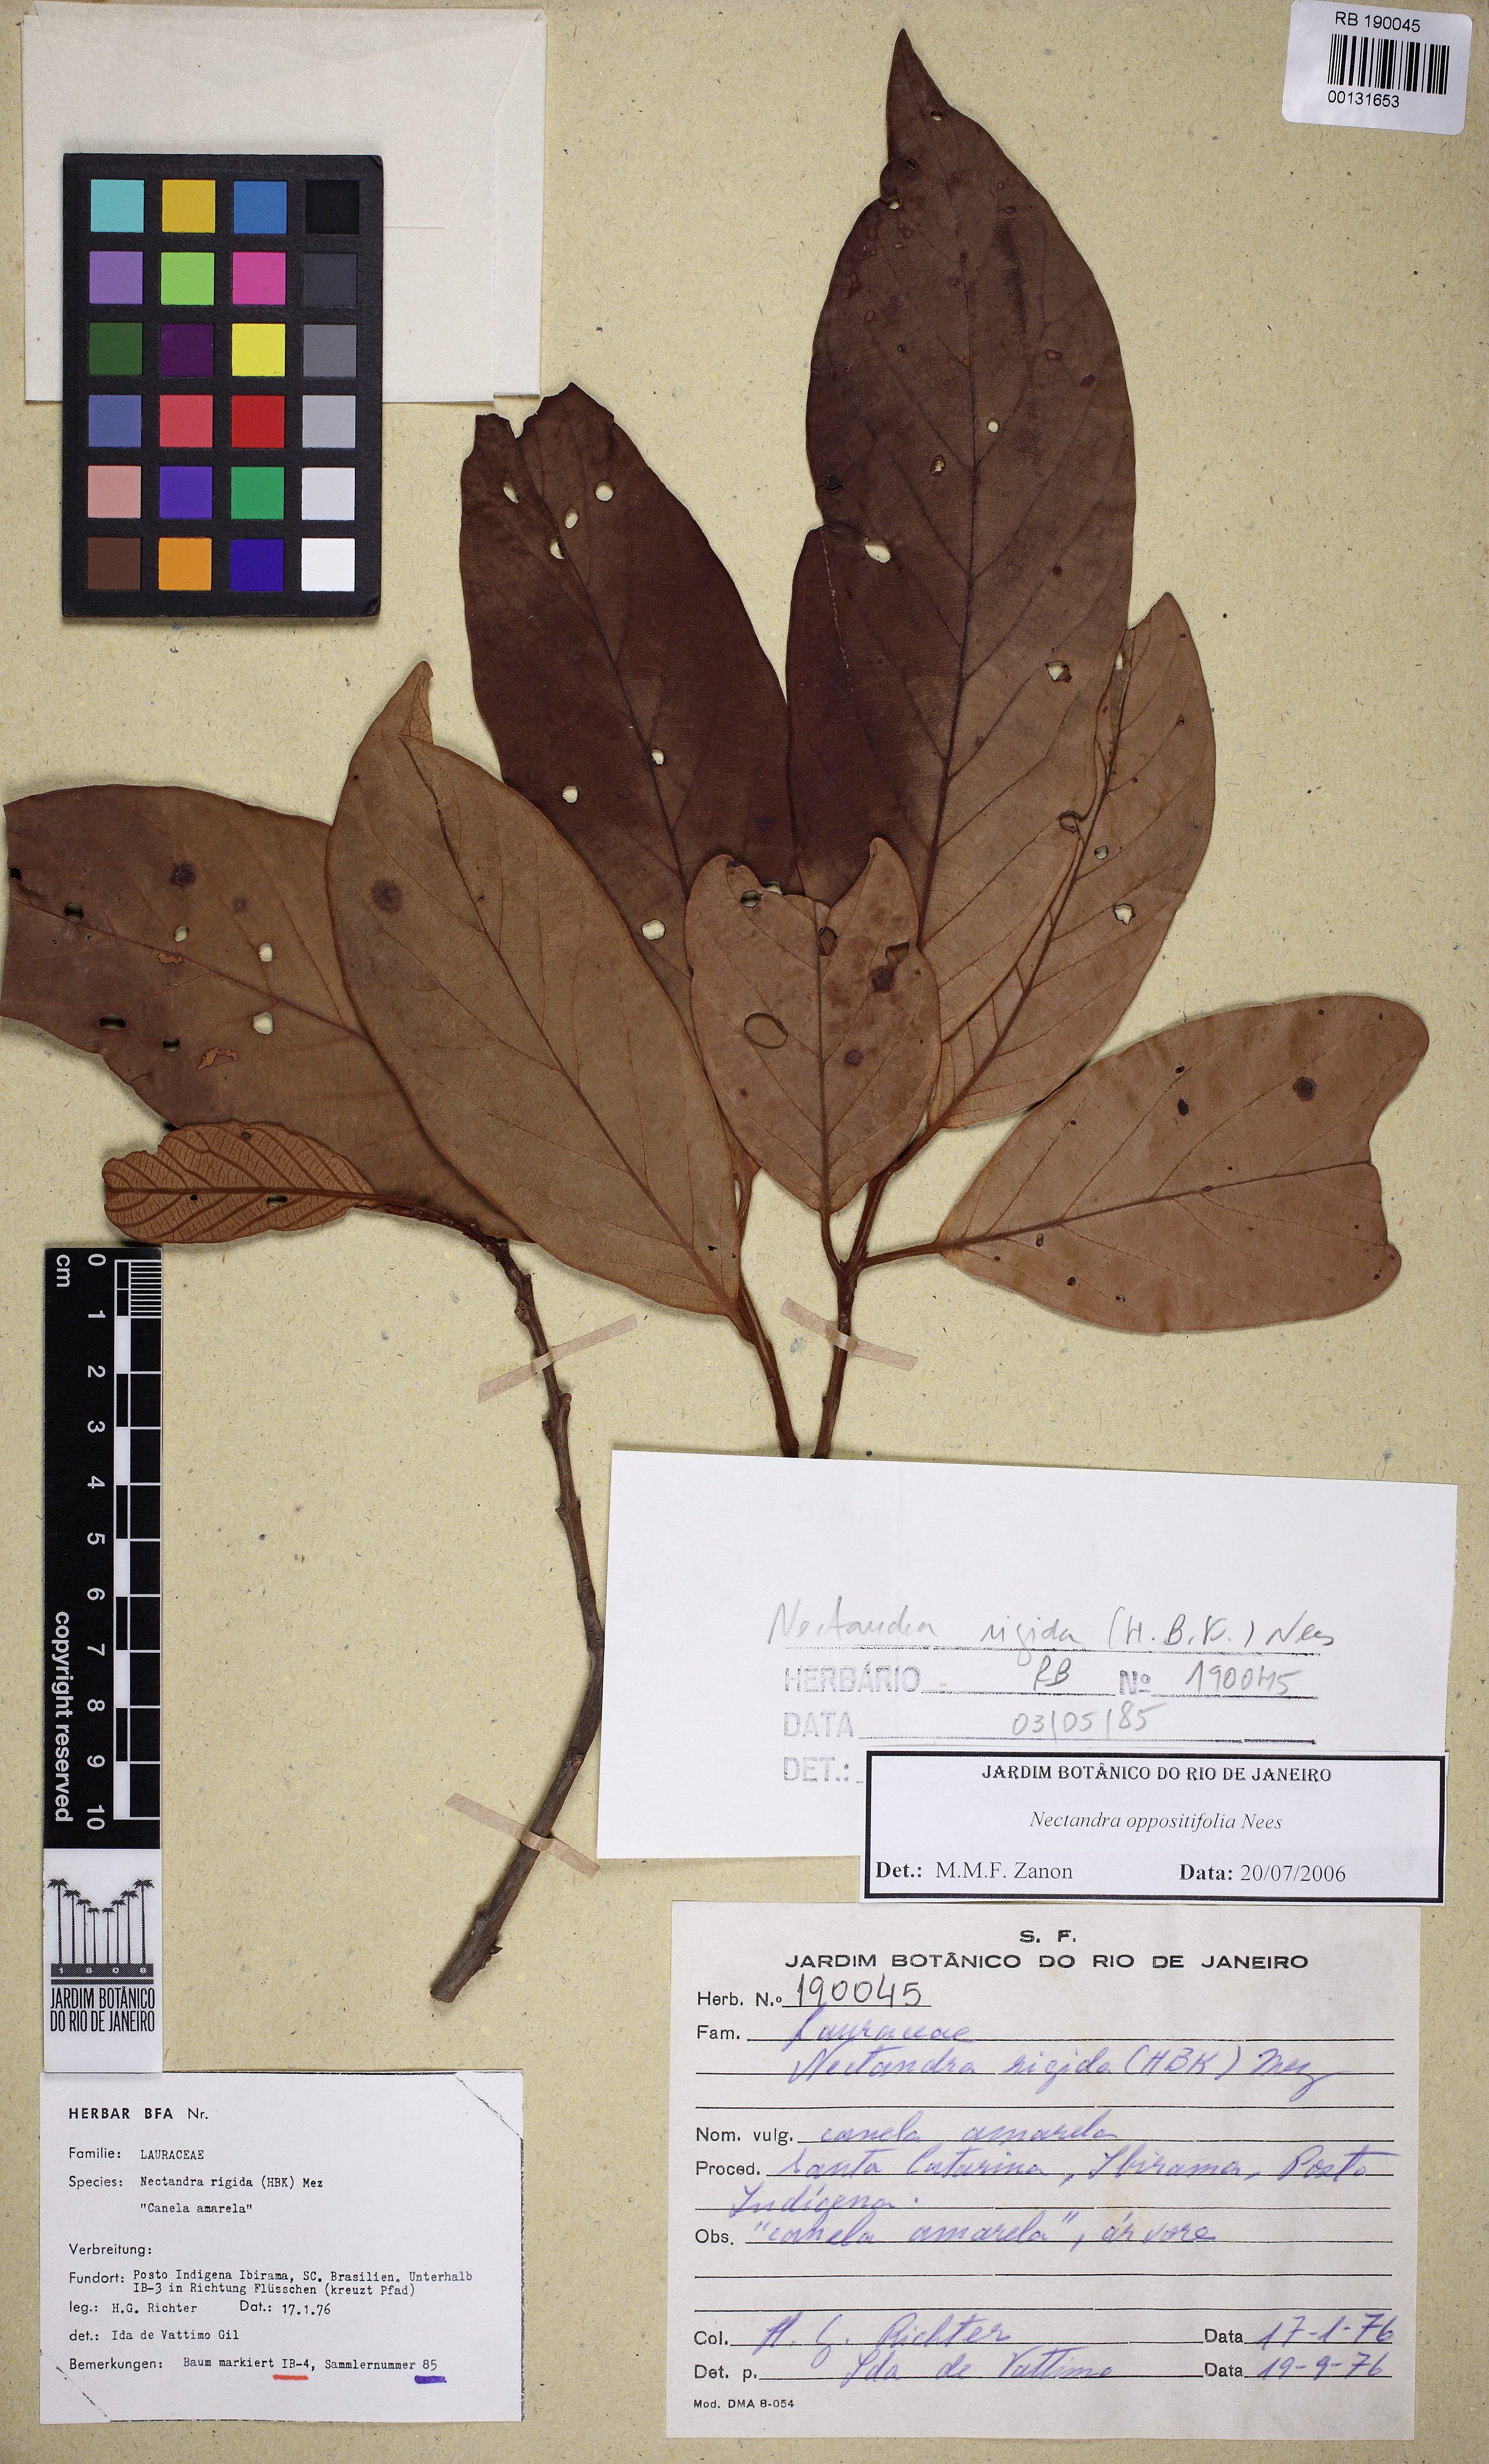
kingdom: Plantae
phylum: Tracheophyta
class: Magnoliopsida
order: Laurales
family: Lauraceae
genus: Nectandra
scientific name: Nectandra oppositifolia
